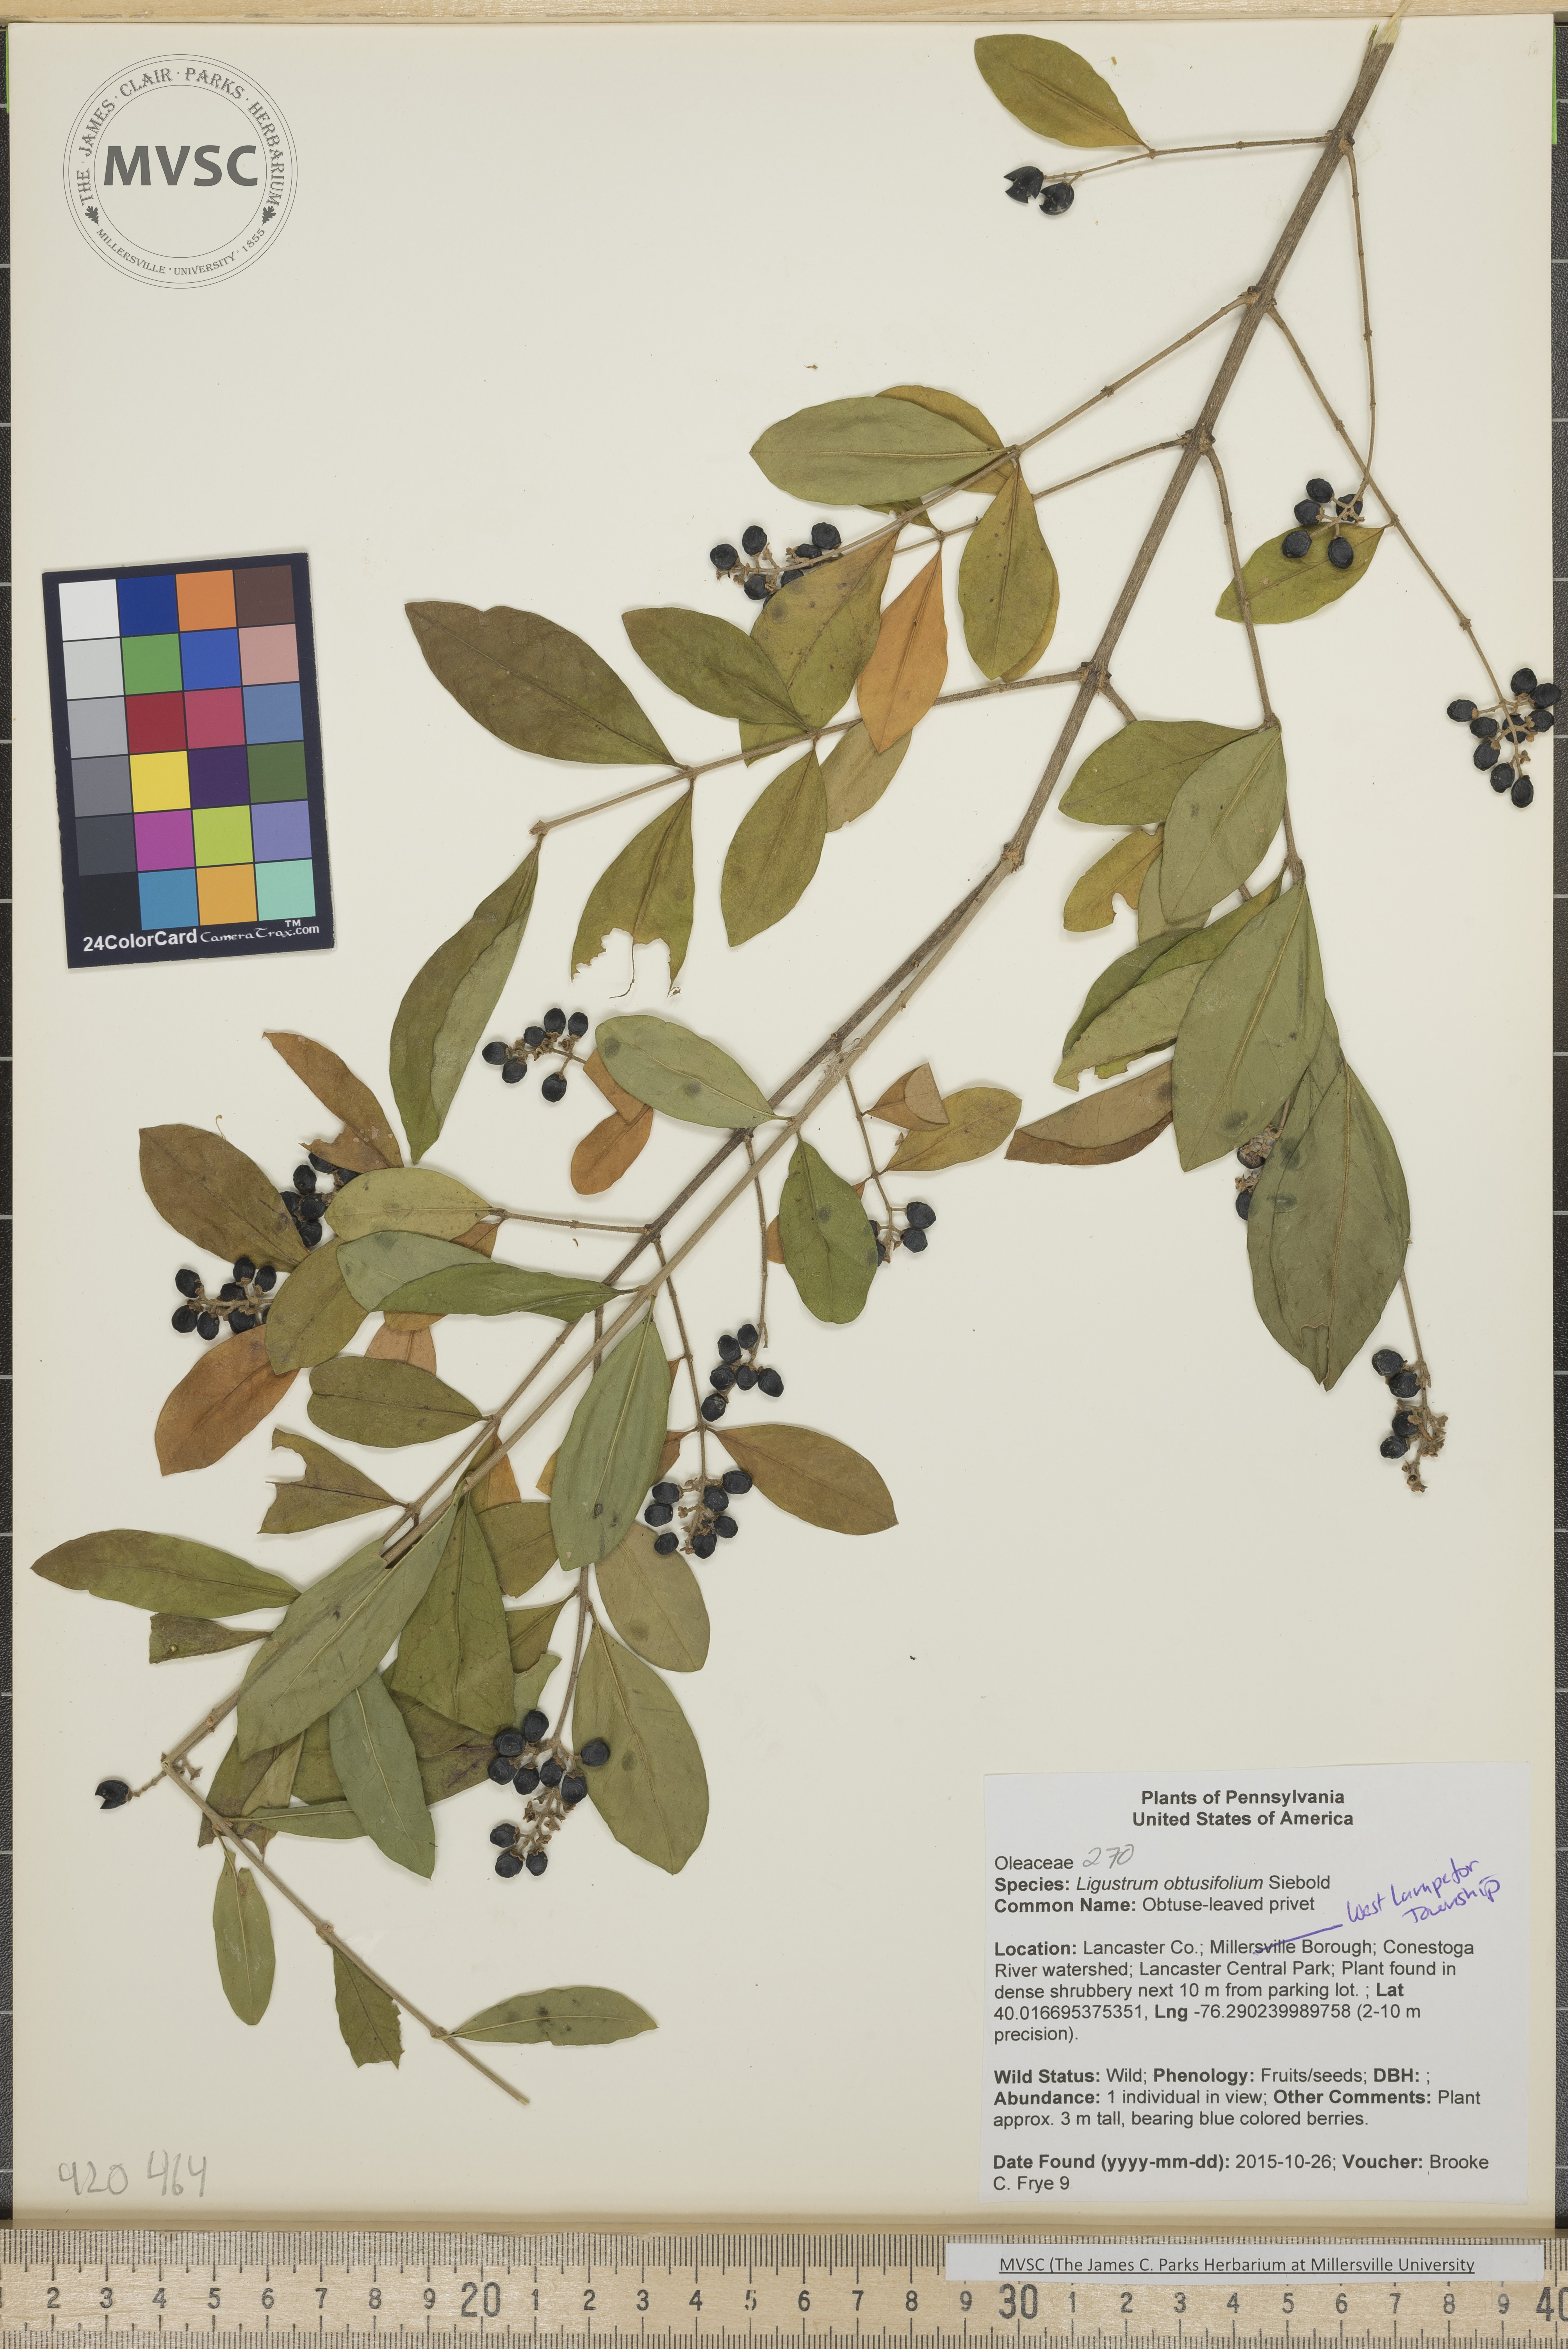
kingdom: Plantae
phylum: Tracheophyta
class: Magnoliopsida
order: Lamiales
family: Oleaceae
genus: Ligustrum
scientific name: Ligustrum obtusifolium
